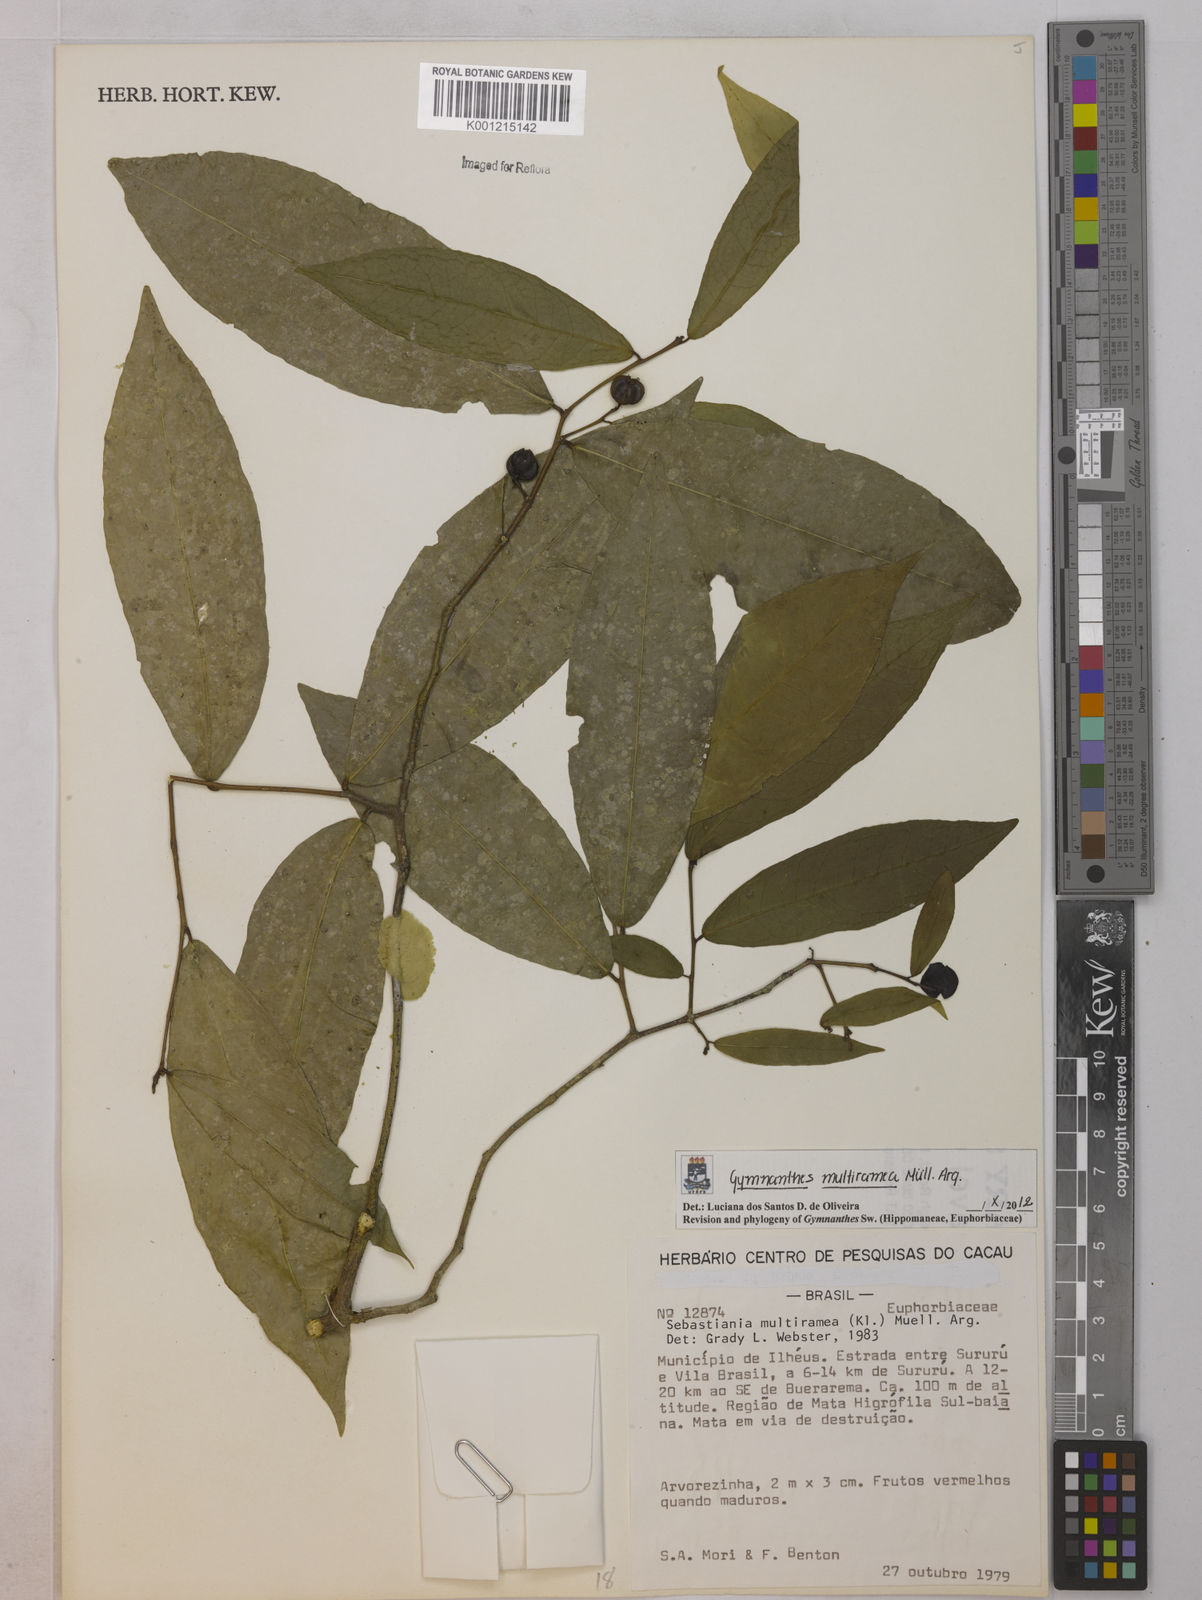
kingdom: Plantae
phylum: Tracheophyta
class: Magnoliopsida
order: Malpighiales
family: Euphorbiaceae
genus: Gymnanthes
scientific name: Gymnanthes
